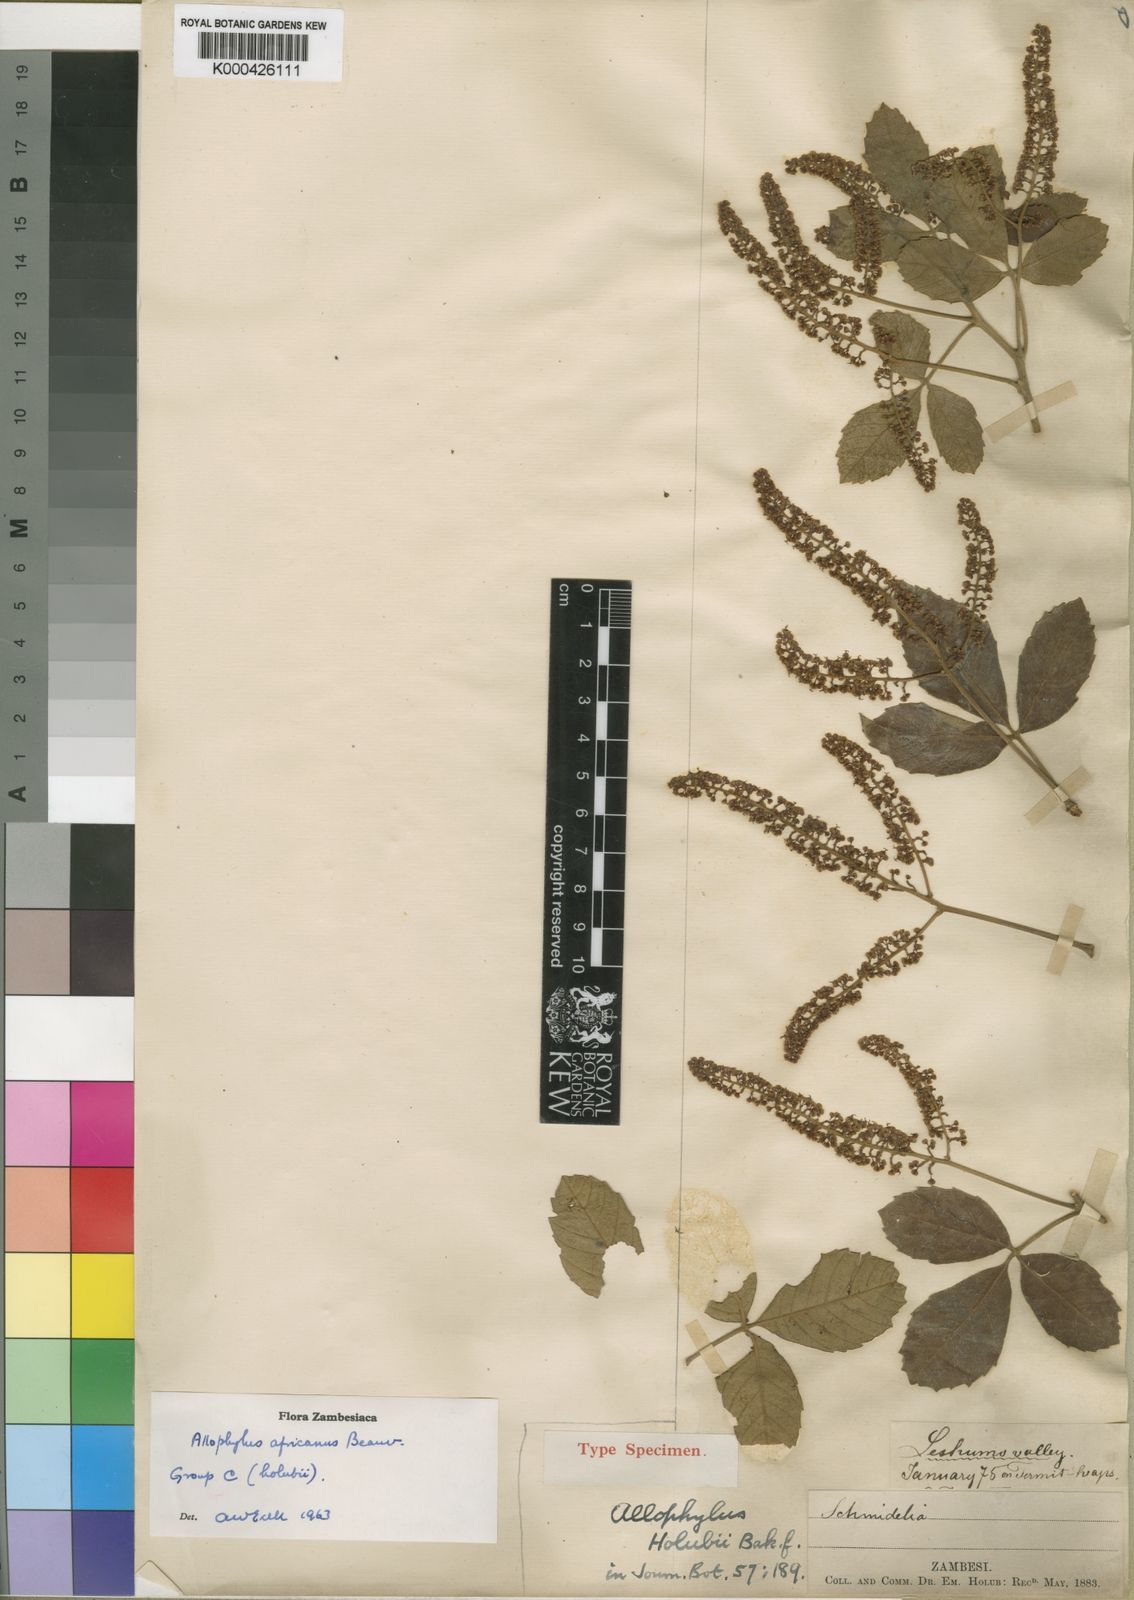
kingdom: Plantae
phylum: Tracheophyta
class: Magnoliopsida
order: Sapindales
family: Sapindaceae
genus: Allophylus
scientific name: Allophylus africanus
